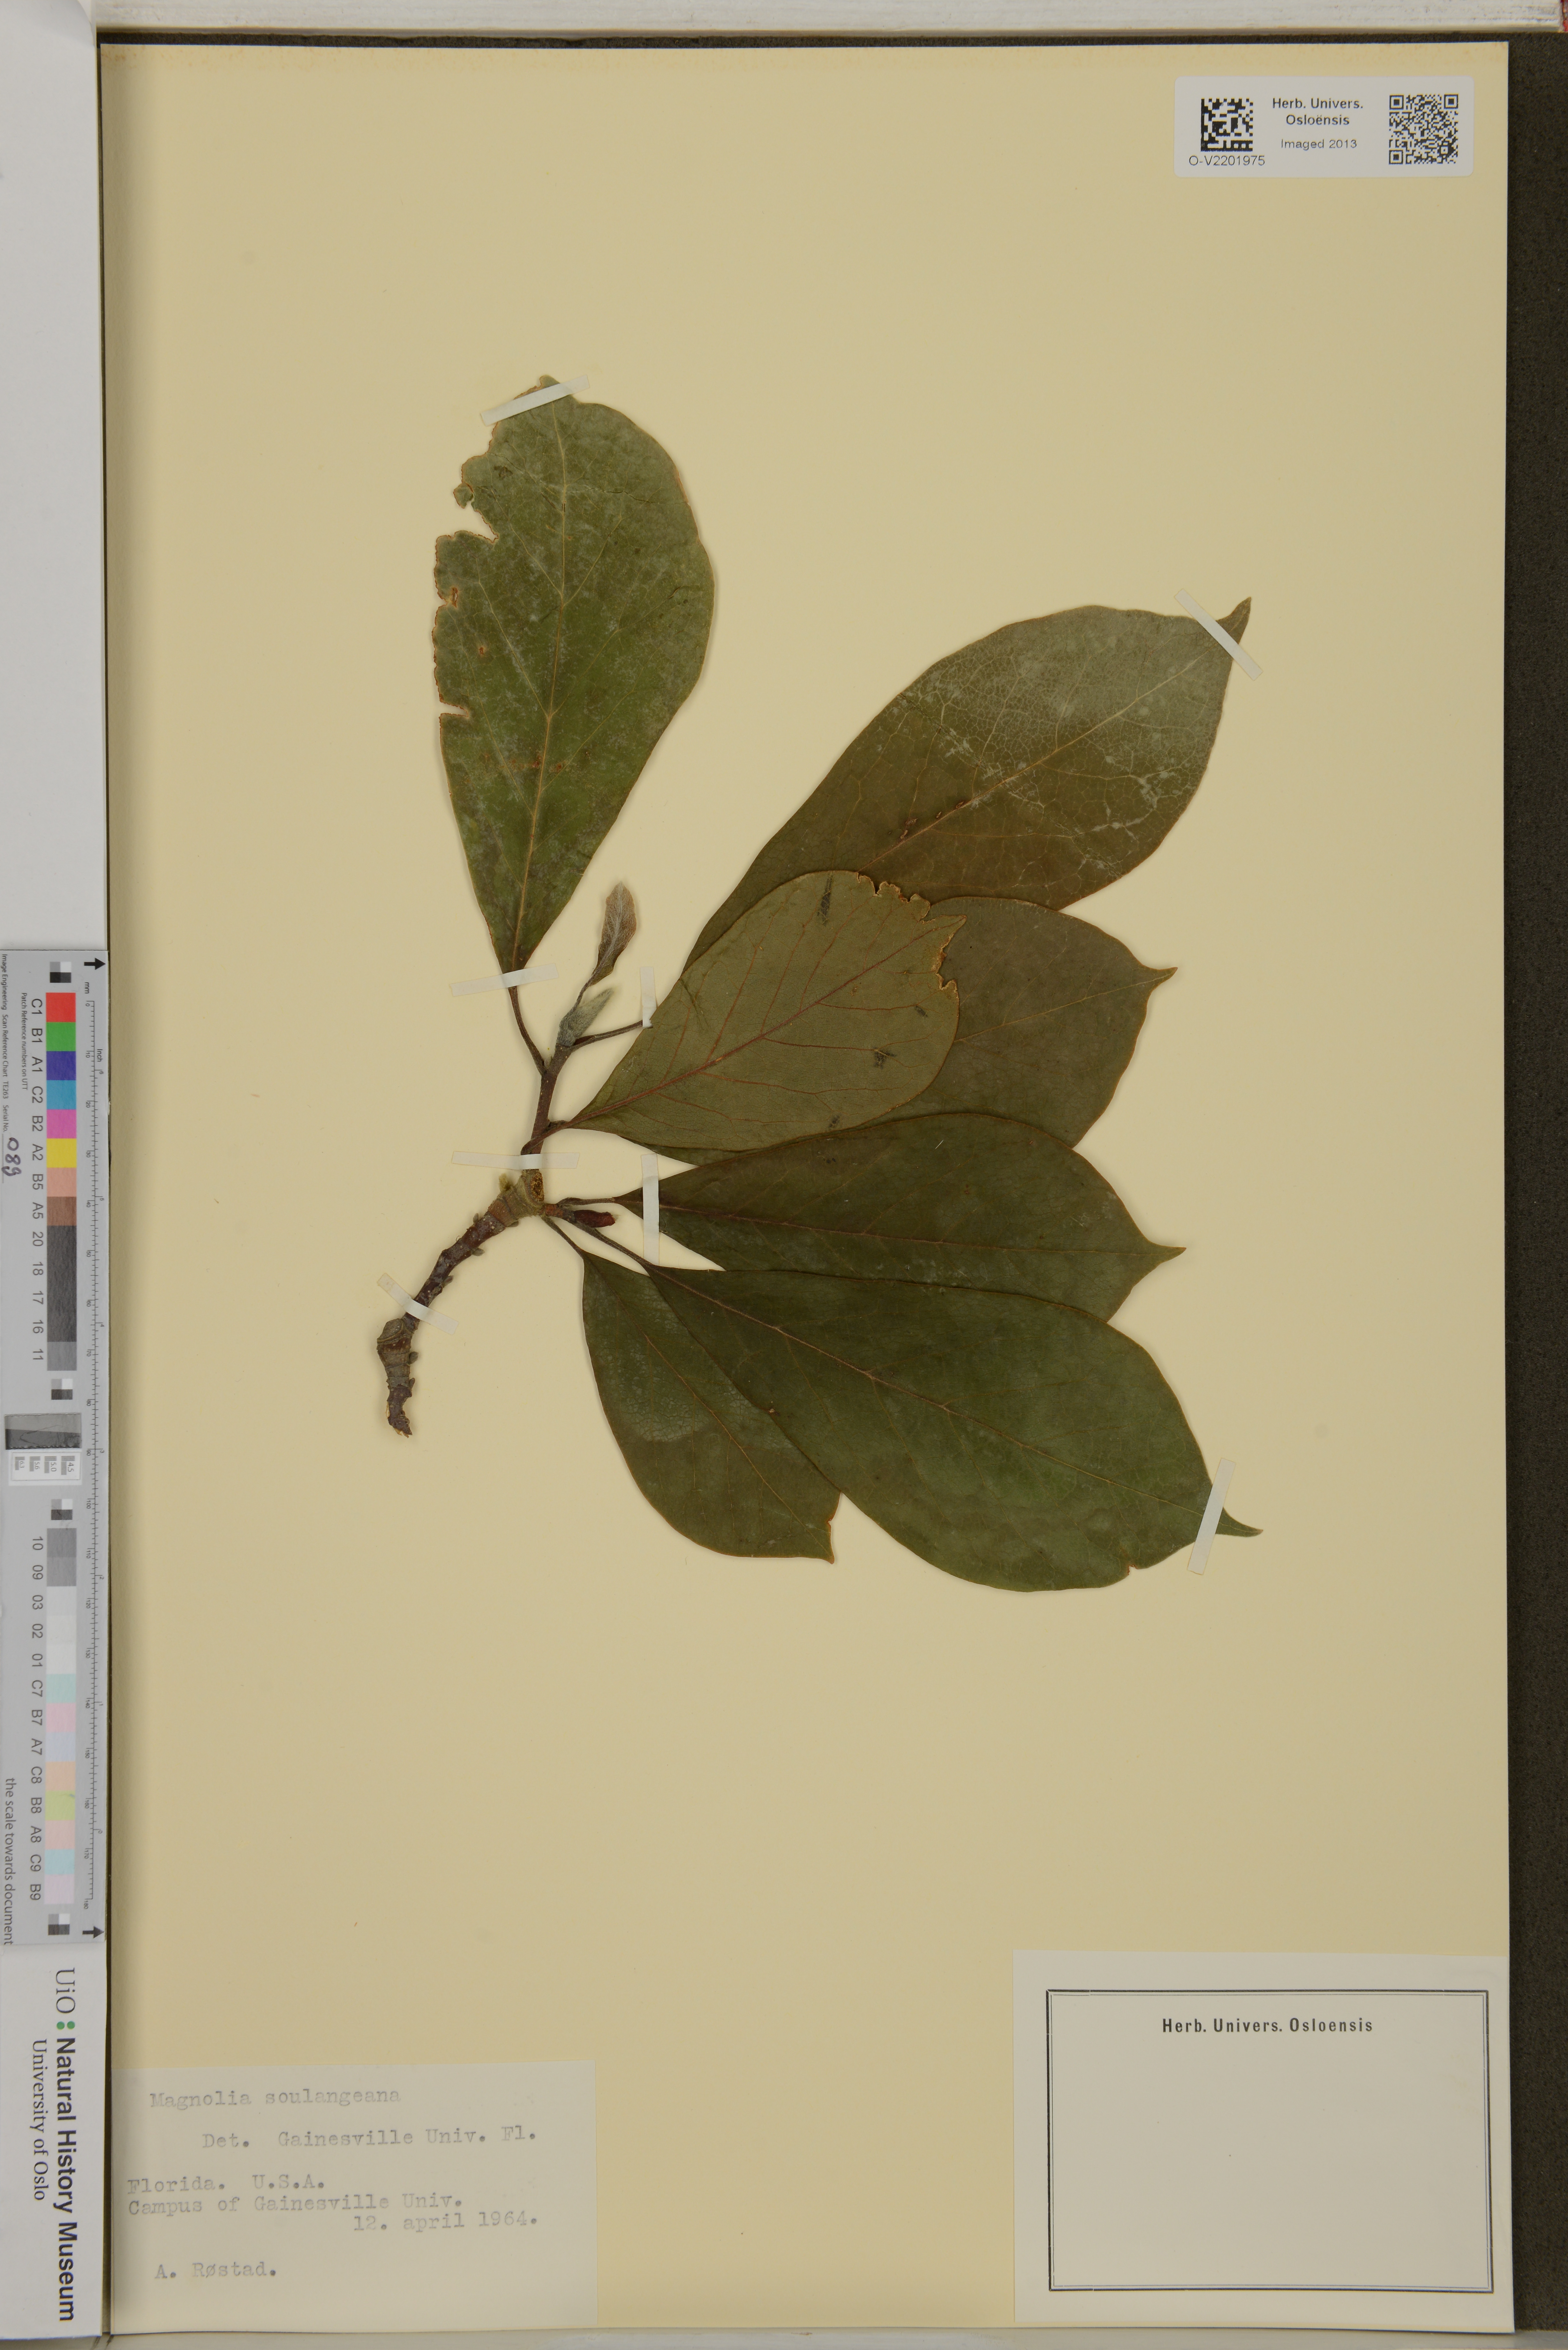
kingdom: Plantae
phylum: Tracheophyta
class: Magnoliopsida
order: Magnoliales
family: Magnoliaceae
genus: Magnolia
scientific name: Magnolia soulangeana
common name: Chinese magnolia
